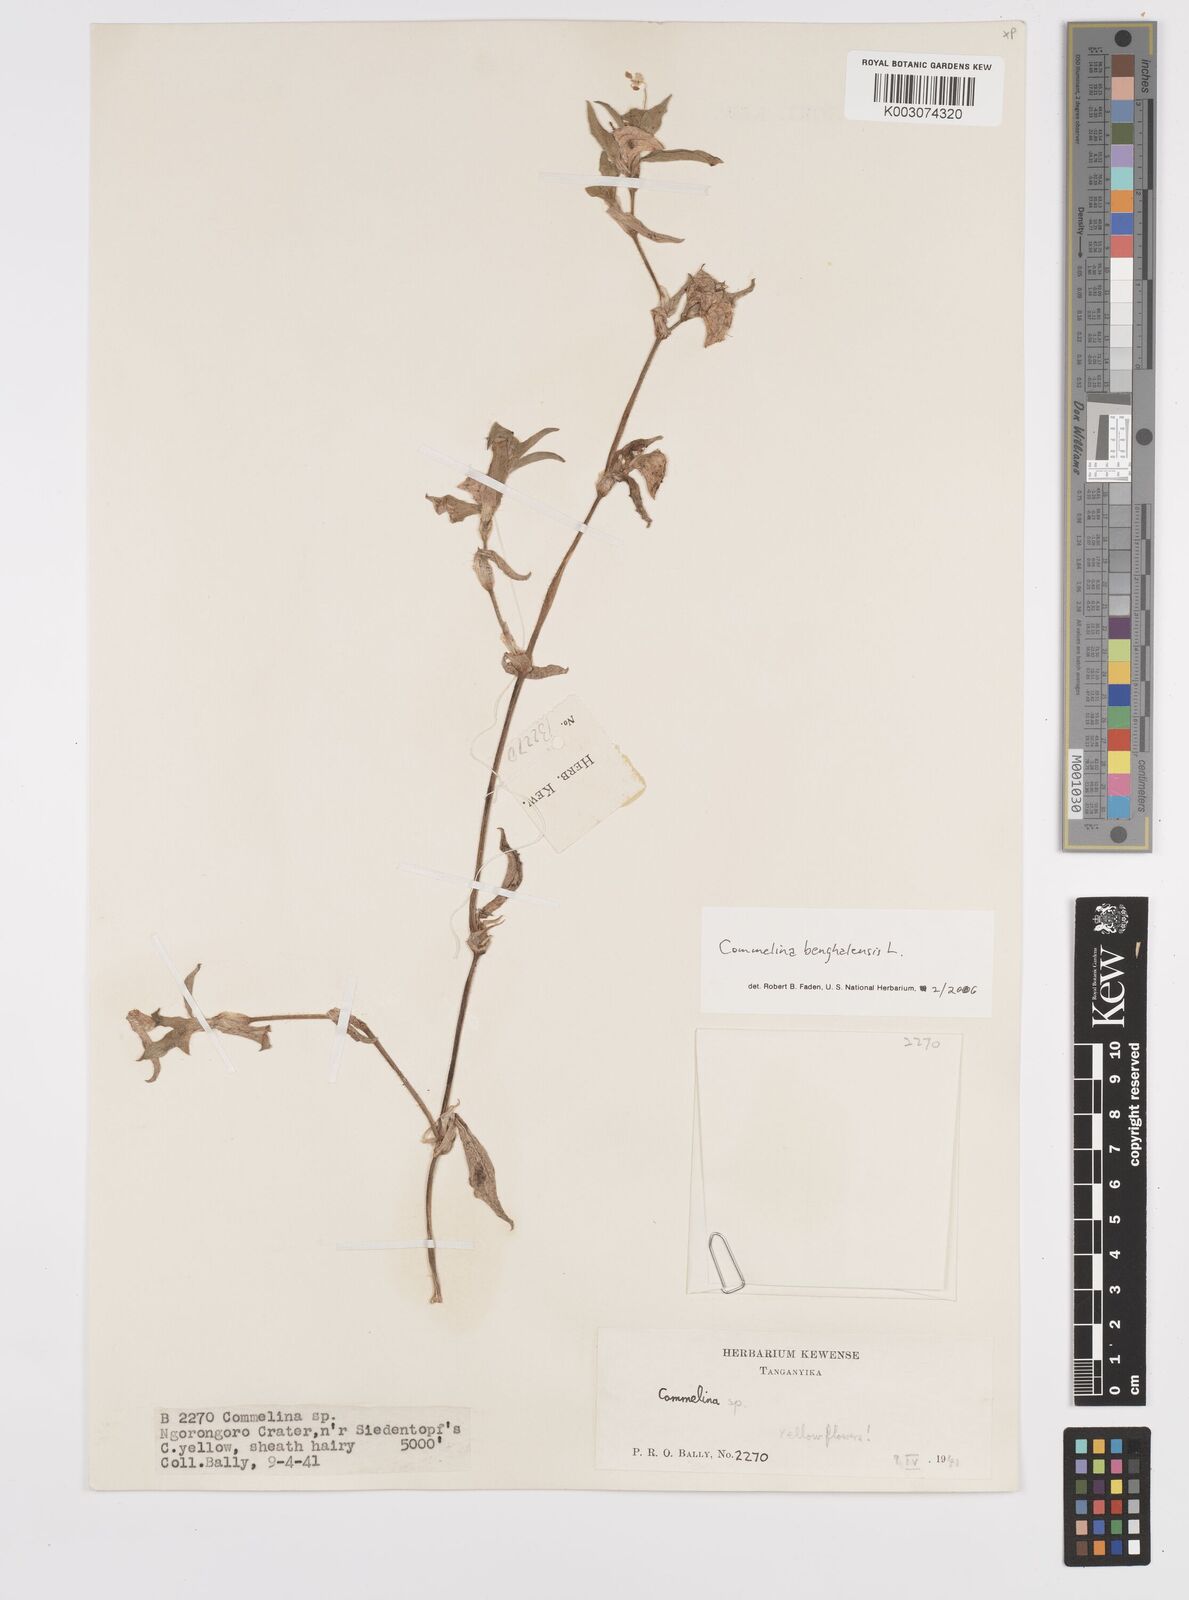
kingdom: Plantae
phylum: Tracheophyta
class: Liliopsida
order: Commelinales
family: Commelinaceae
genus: Commelina
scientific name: Commelina benghalensis
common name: Jio
